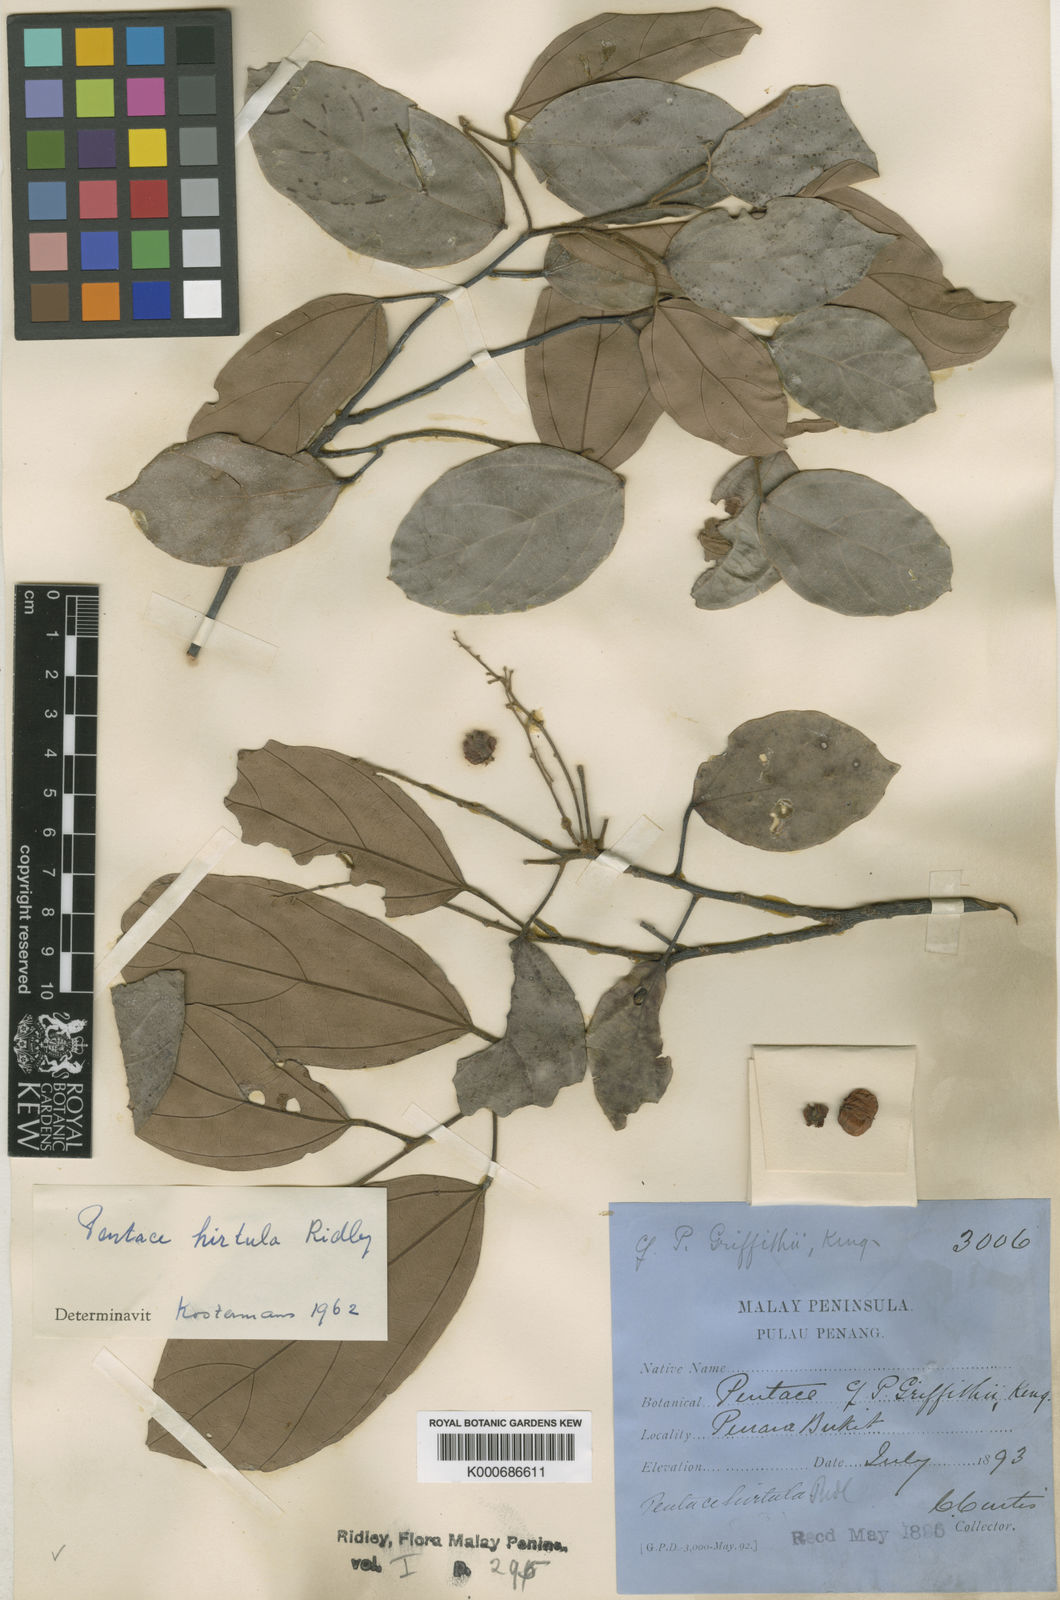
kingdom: Plantae
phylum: Tracheophyta
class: Magnoliopsida
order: Malvales
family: Malvaceae
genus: Pentace
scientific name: Pentace hirtula
